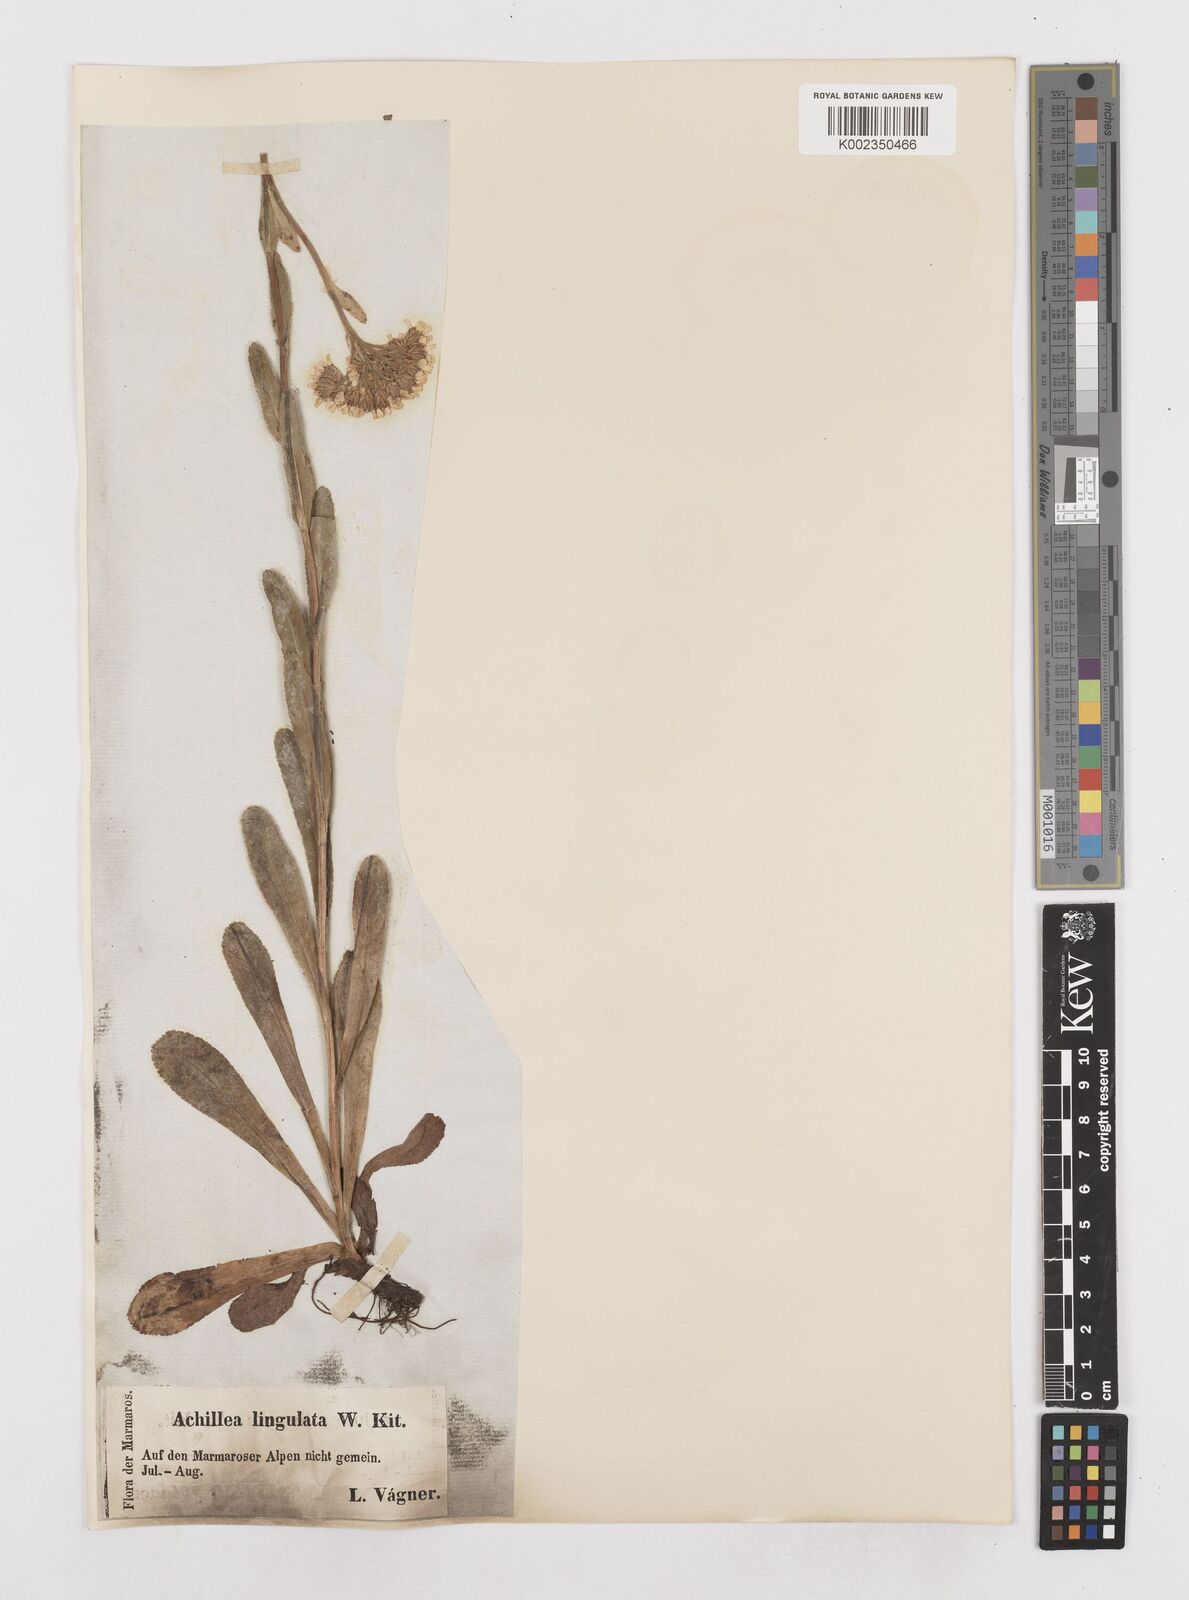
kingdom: Plantae
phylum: Tracheophyta
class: Magnoliopsida
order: Asterales
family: Asteraceae
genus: Achillea
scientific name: Achillea lingulata
